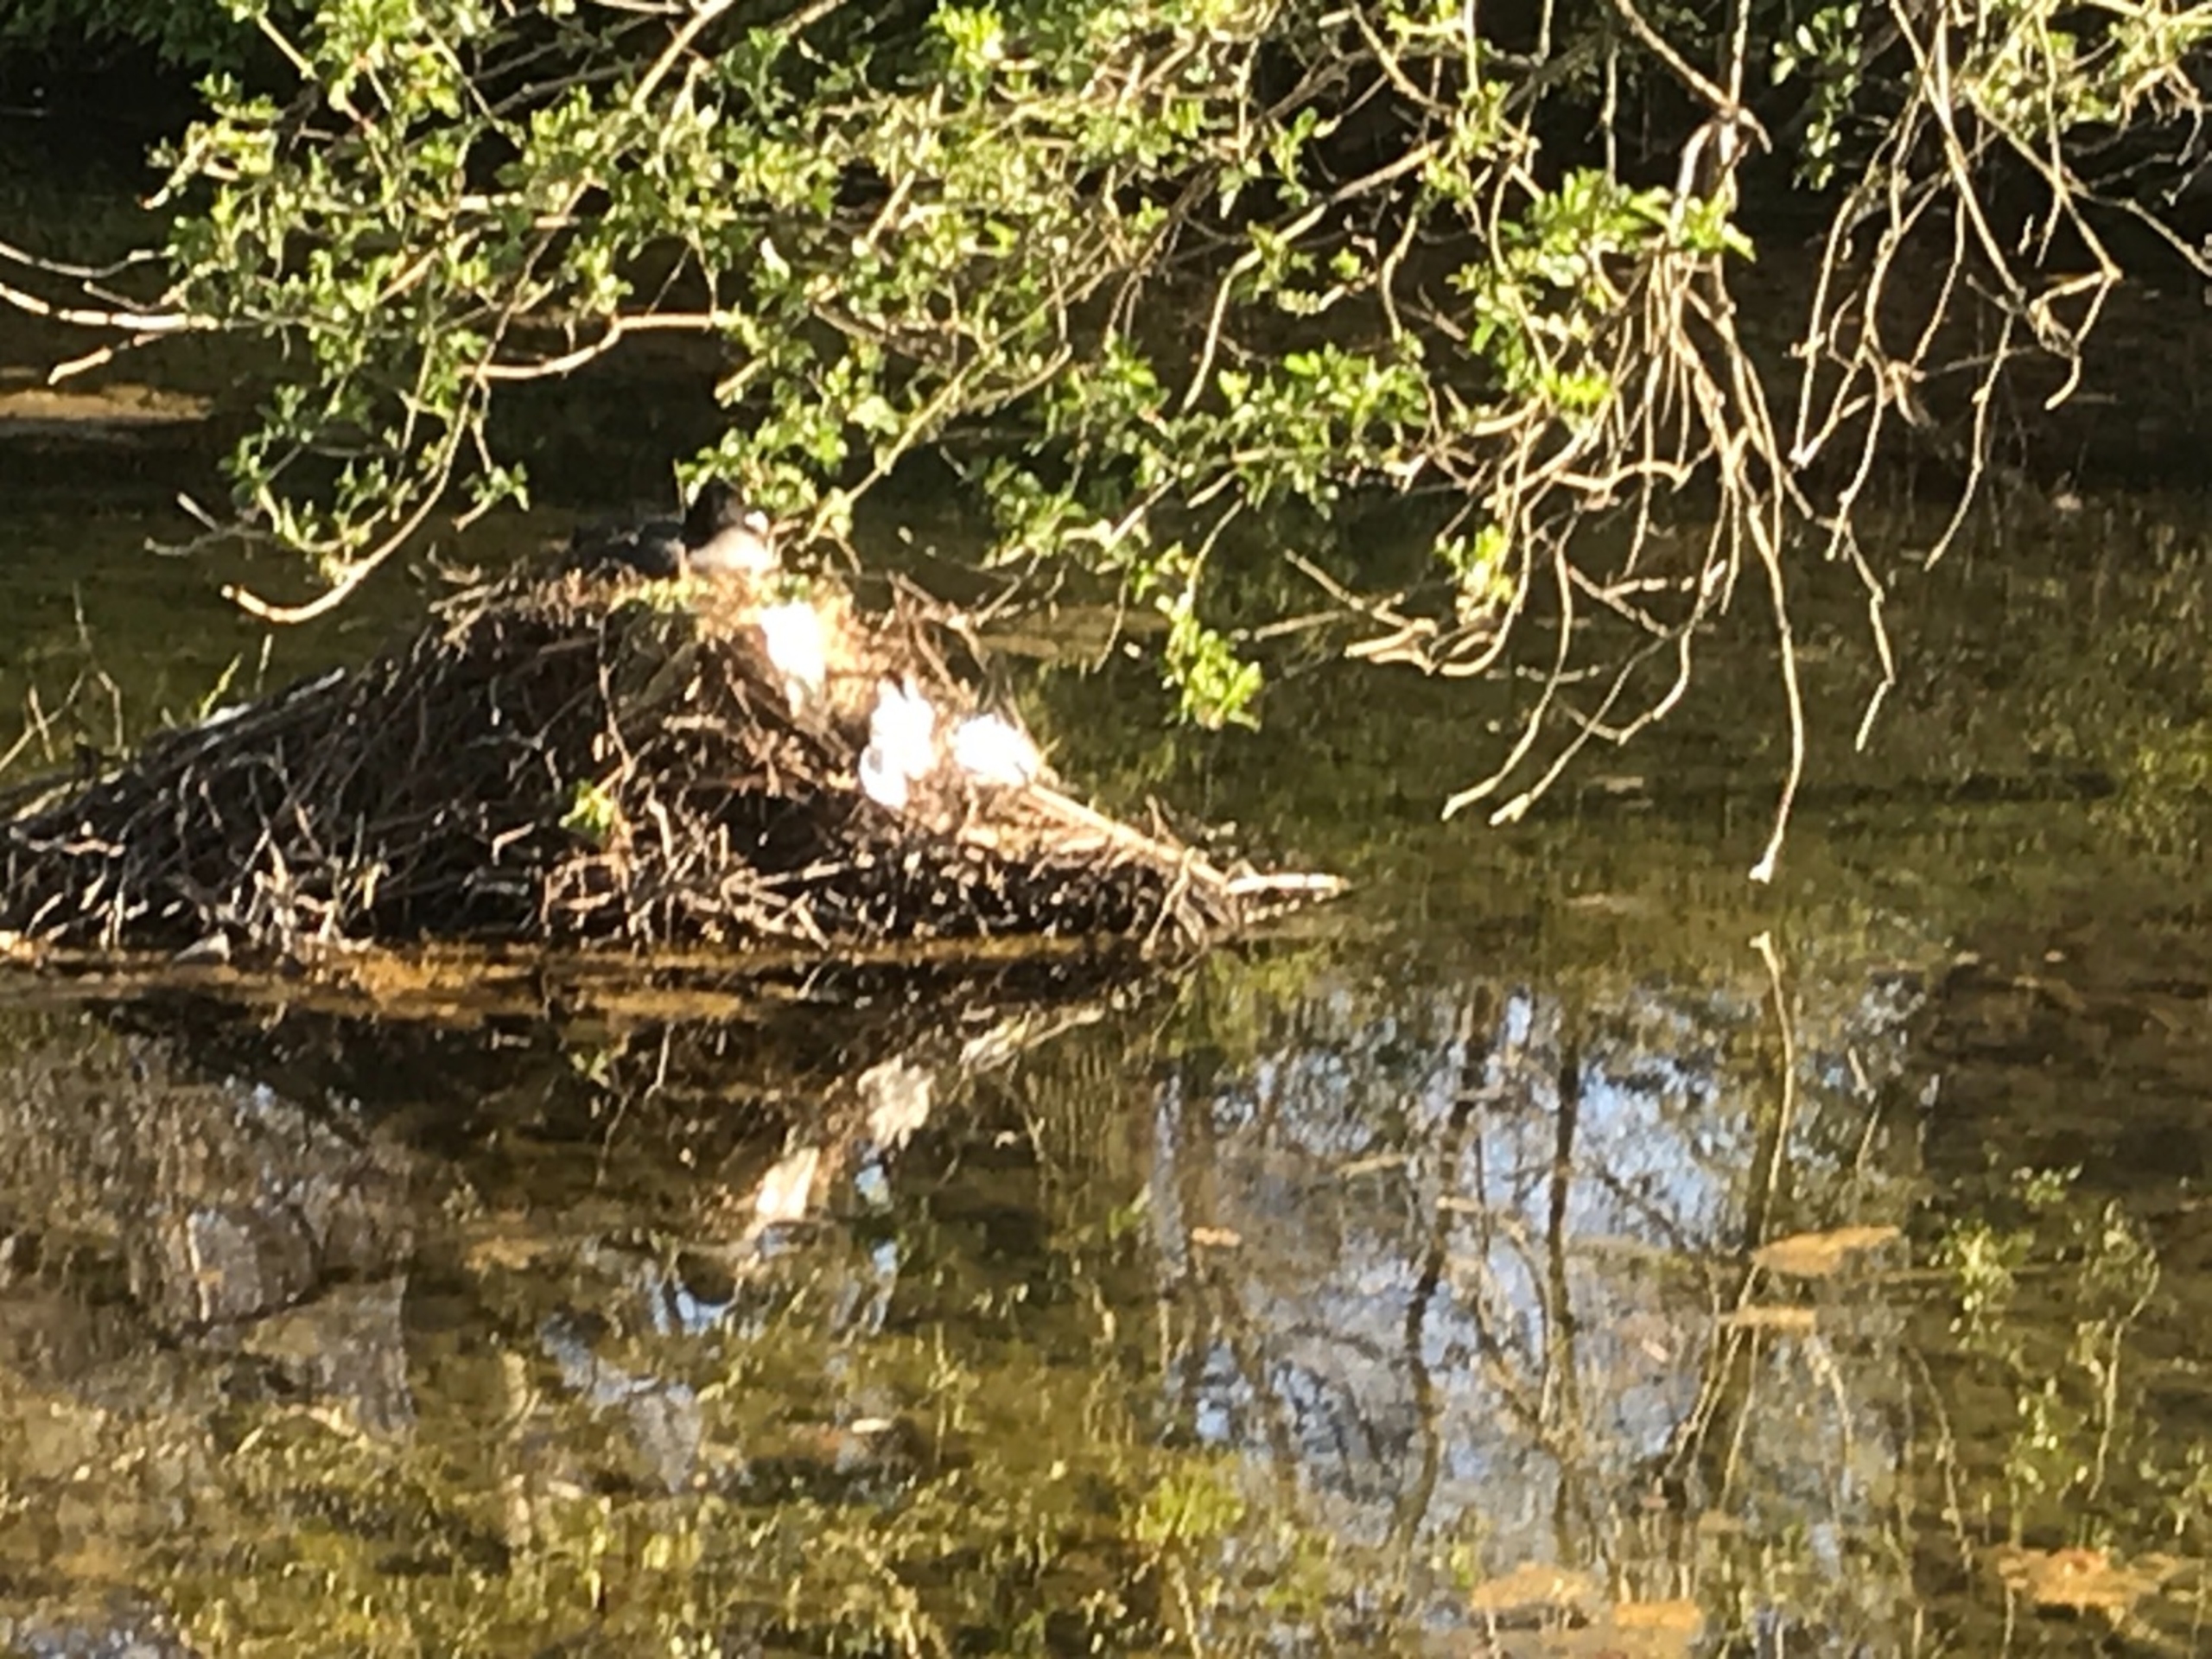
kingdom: Animalia
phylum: Chordata
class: Aves
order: Gruiformes
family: Rallidae
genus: Fulica
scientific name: Fulica atra
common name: Blishøne
